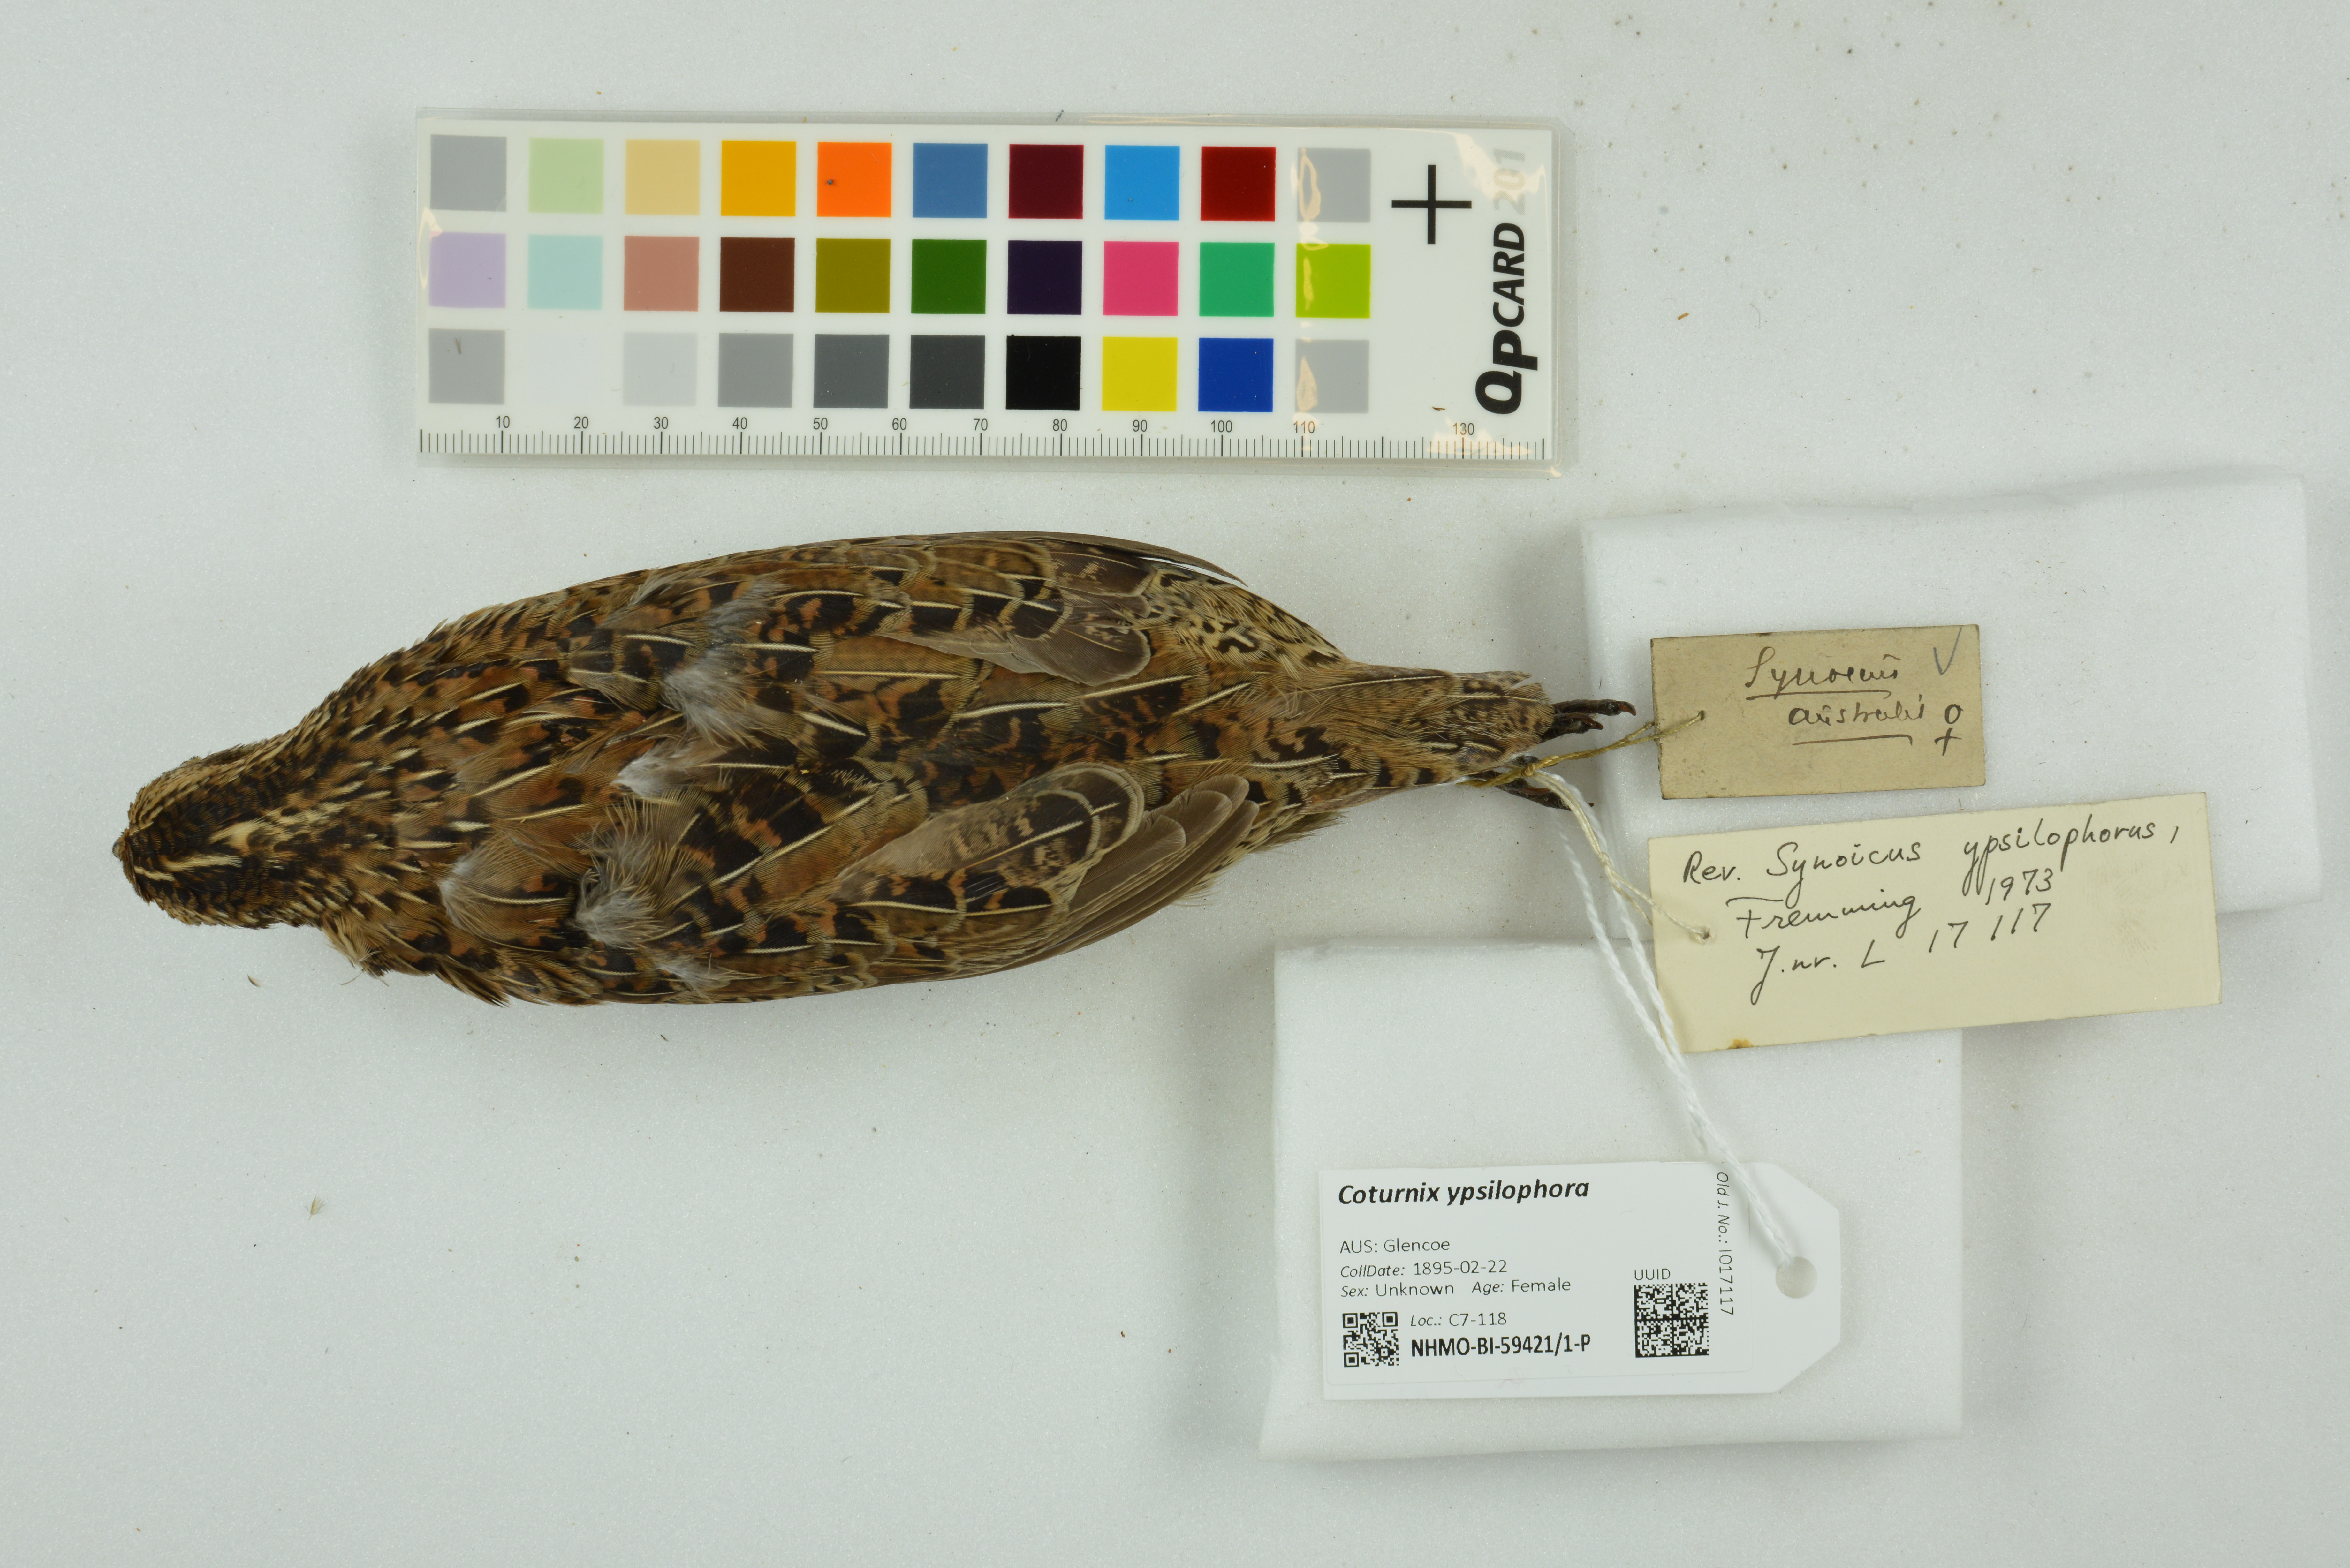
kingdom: Animalia
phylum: Chordata
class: Aves
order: Galliformes
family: Phasianidae
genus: Synoicus
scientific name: Synoicus ypsilophorus
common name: Brown quail
